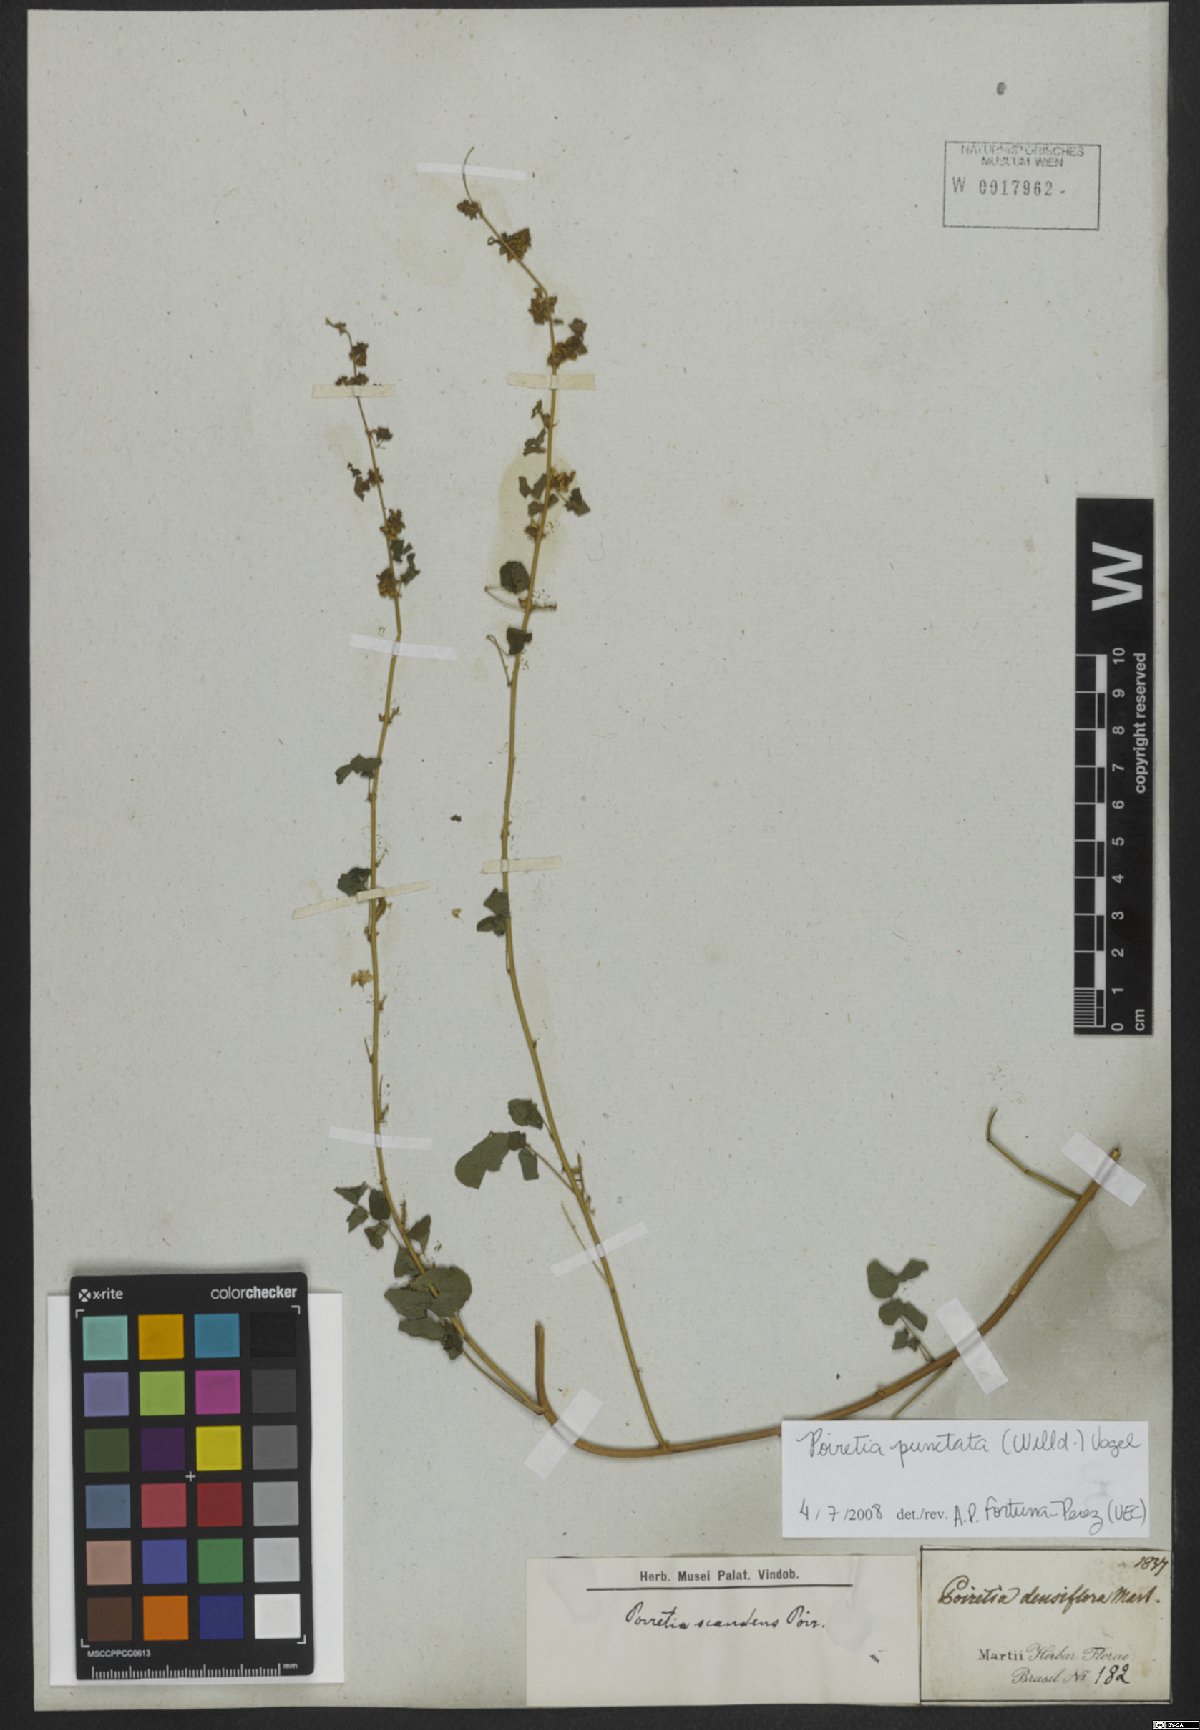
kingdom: Plantae
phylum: Tracheophyta
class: Magnoliopsida
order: Fabales
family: Fabaceae
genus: Poiretia
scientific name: Poiretia punctata
